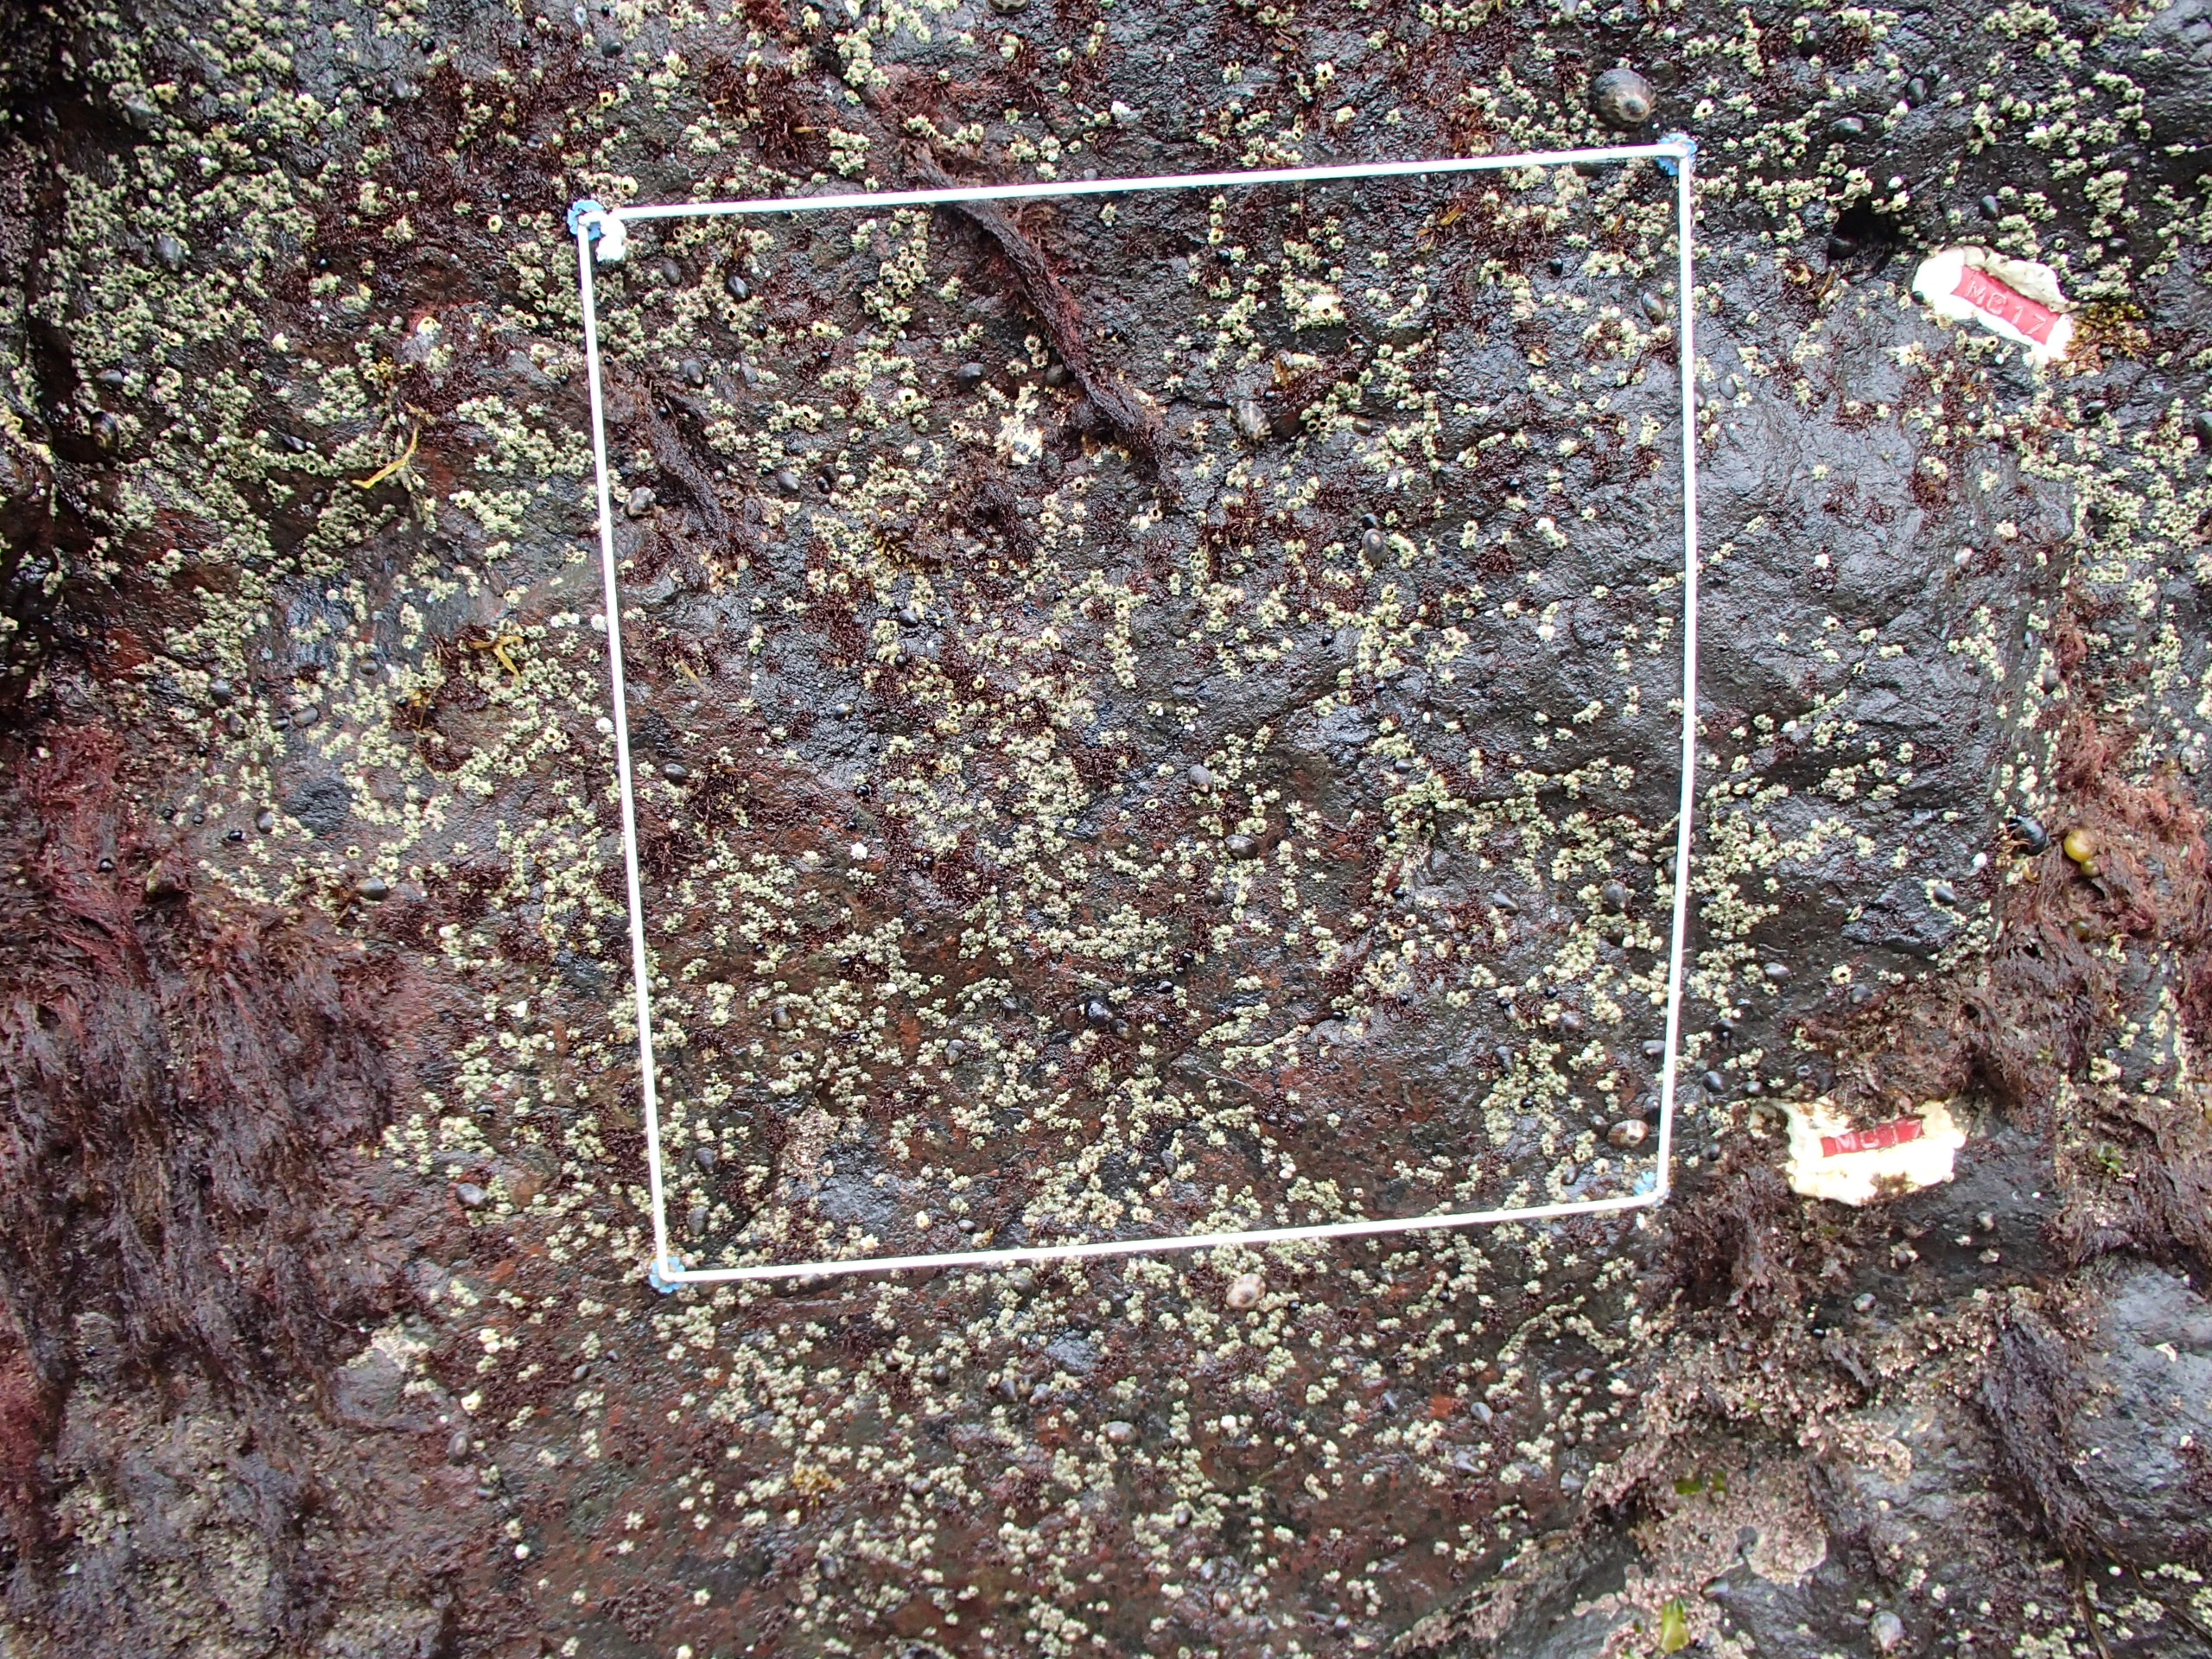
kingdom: Plantae
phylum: Rhodophyta
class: Florideophyceae
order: Gigartinales
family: Endocladiaceae
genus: Gloiopeltis
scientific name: Gloiopeltis furcata
